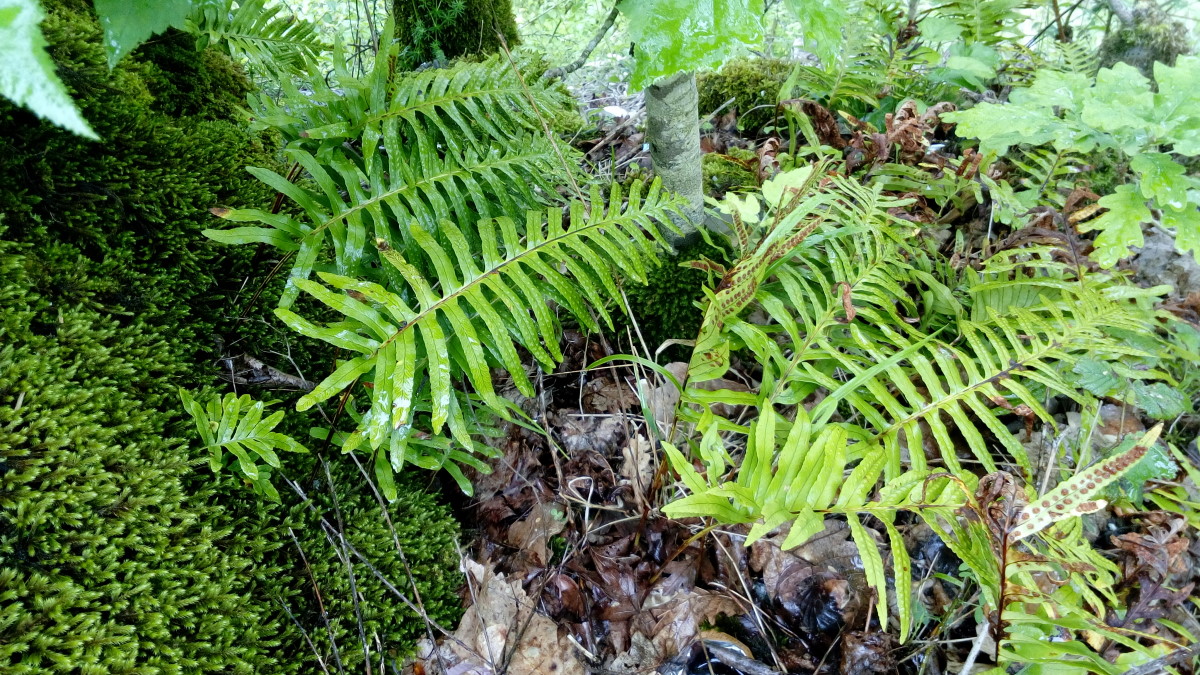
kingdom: Plantae
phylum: Tracheophyta
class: Polypodiopsida
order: Polypodiales
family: Polypodiaceae
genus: Polypodium
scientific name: Polypodium vulgare
